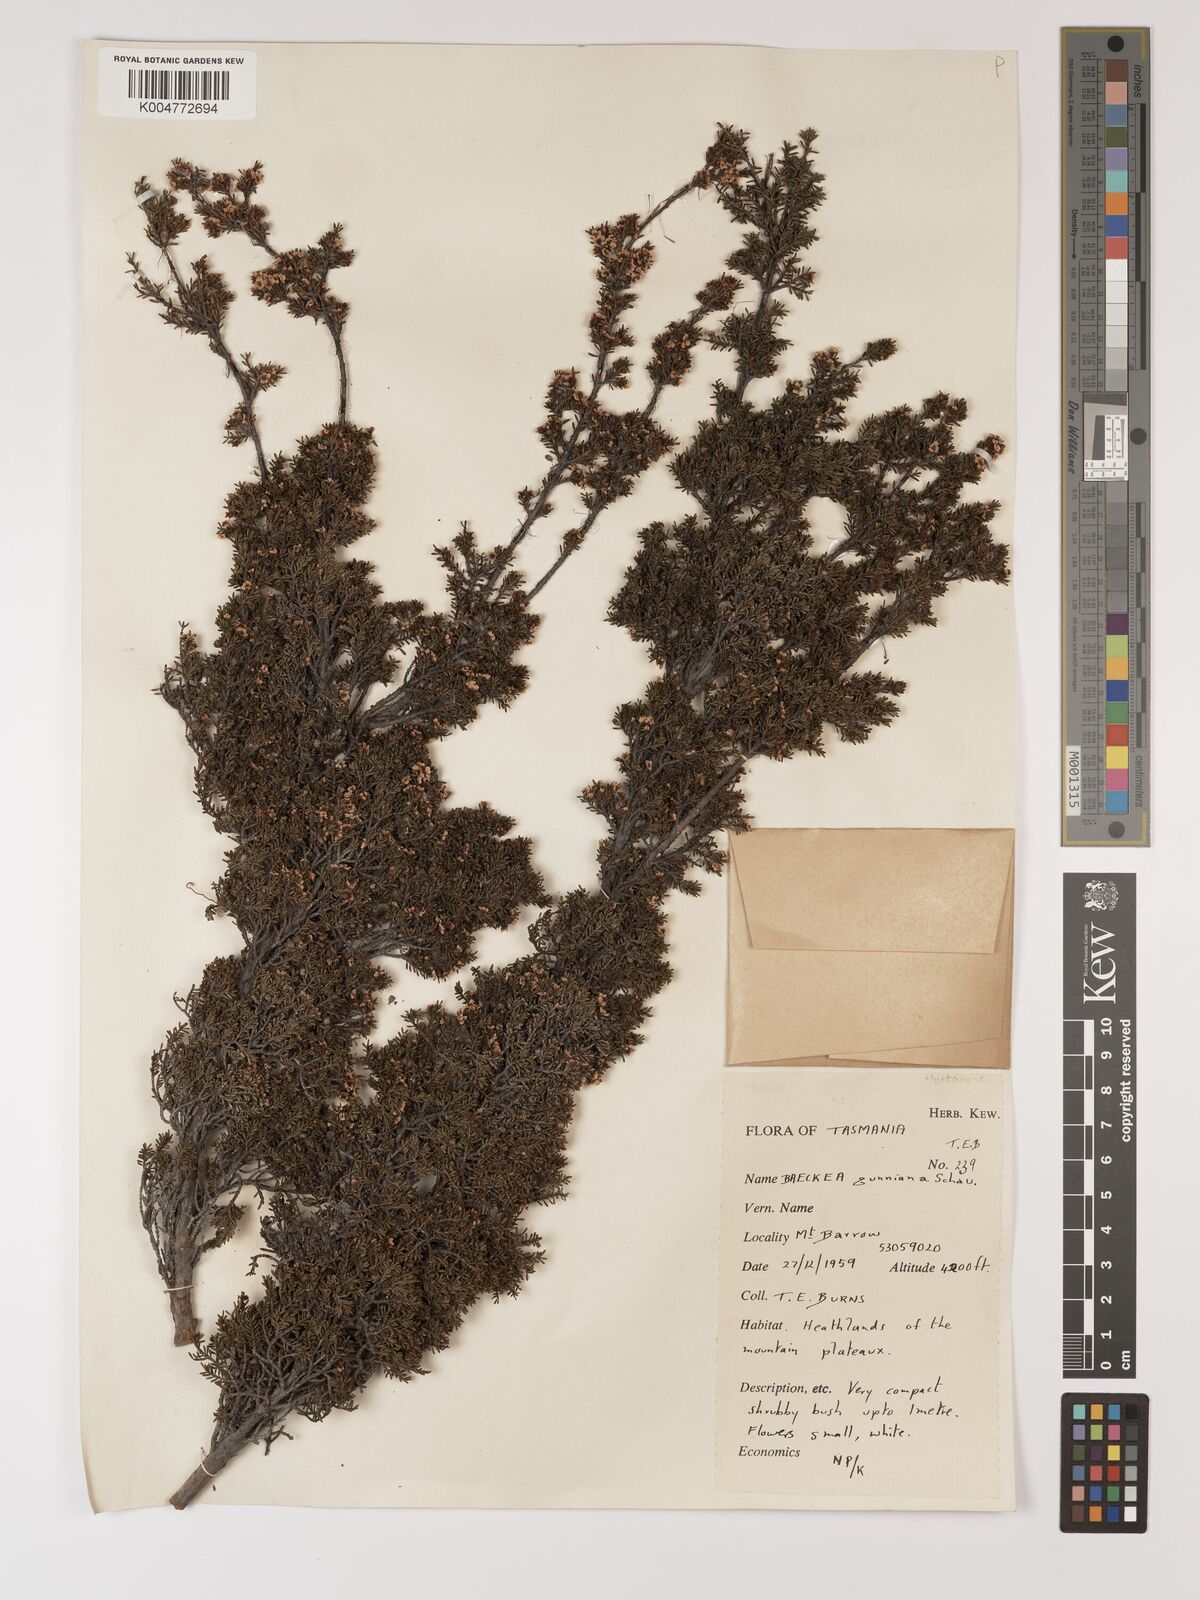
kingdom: Plantae
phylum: Tracheophyta
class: Magnoliopsida
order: Myrtales
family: Myrtaceae
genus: Baeckea
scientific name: Baeckea gunniana
